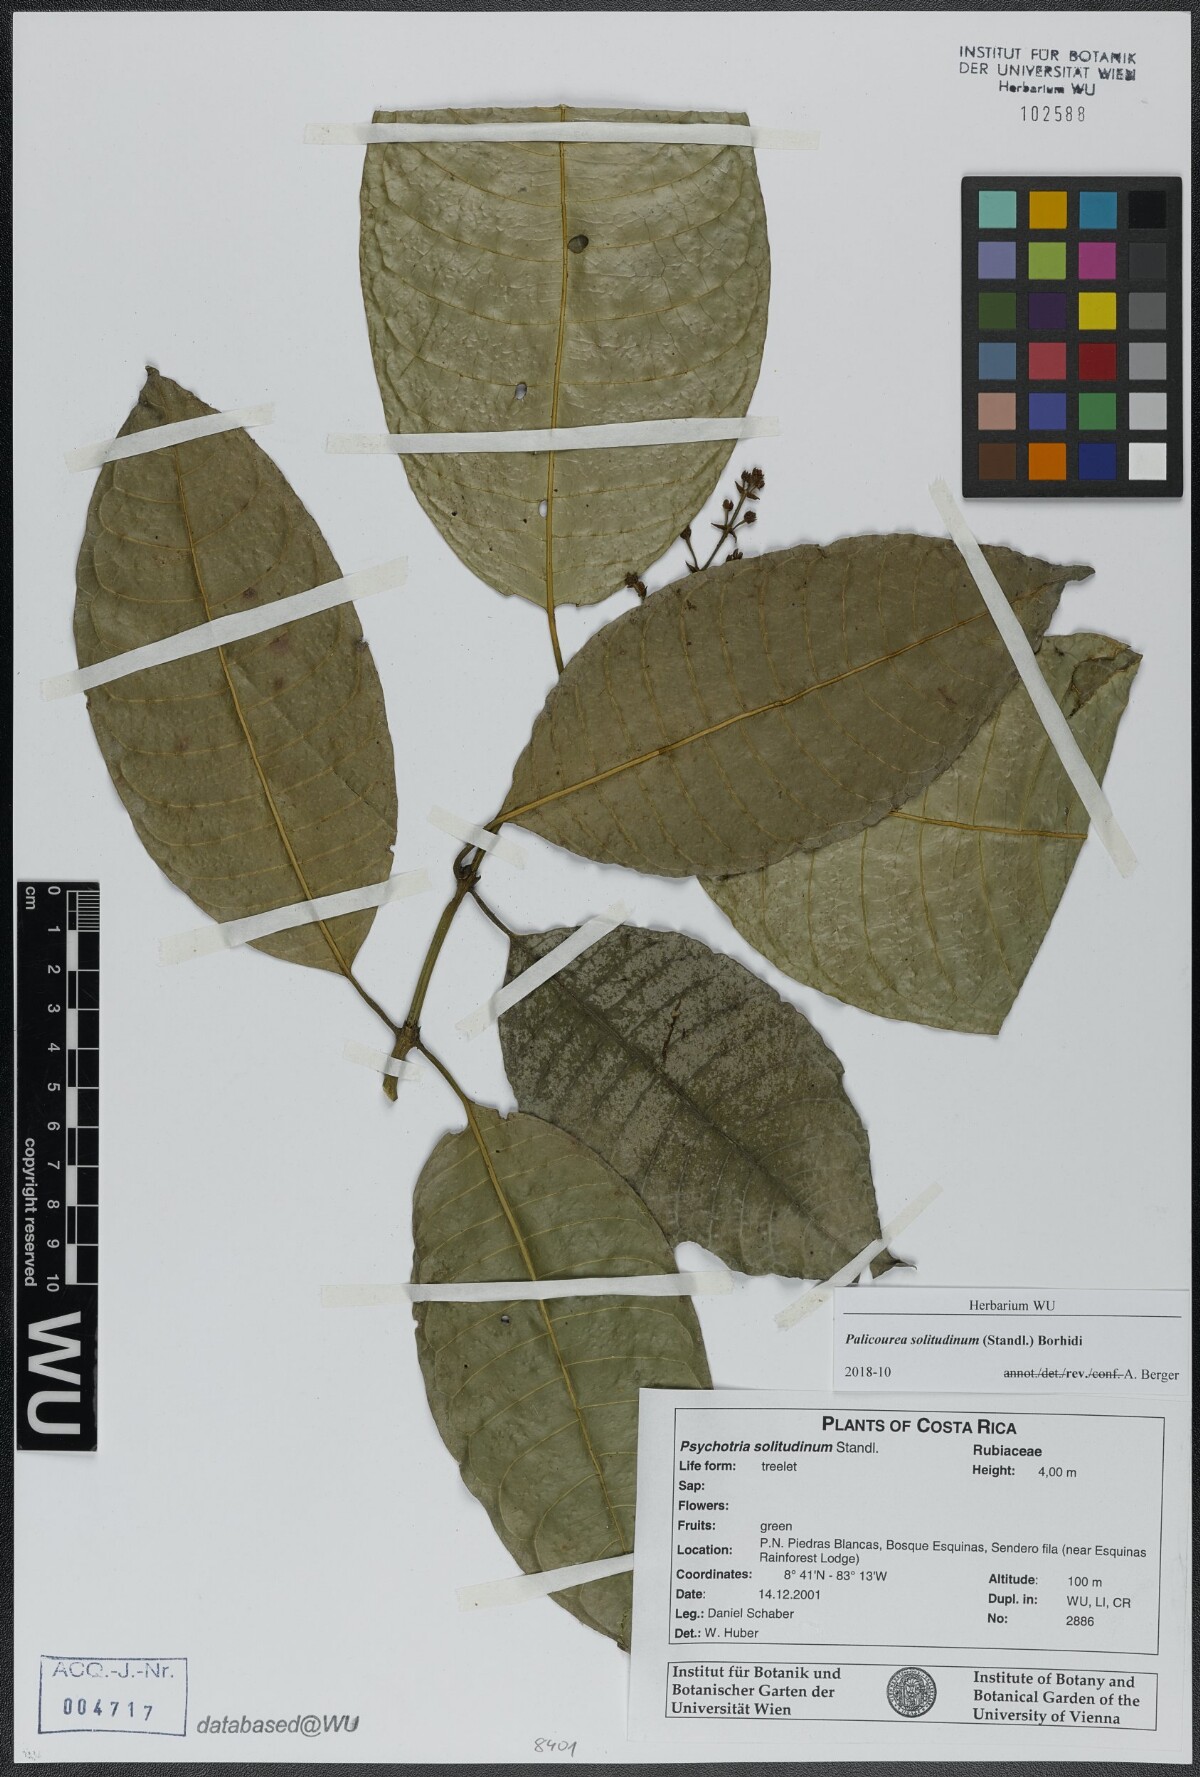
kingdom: Plantae
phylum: Tracheophyta
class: Magnoliopsida
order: Gentianales
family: Rubiaceae
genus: Palicourea
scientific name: Palicourea solitudinum
